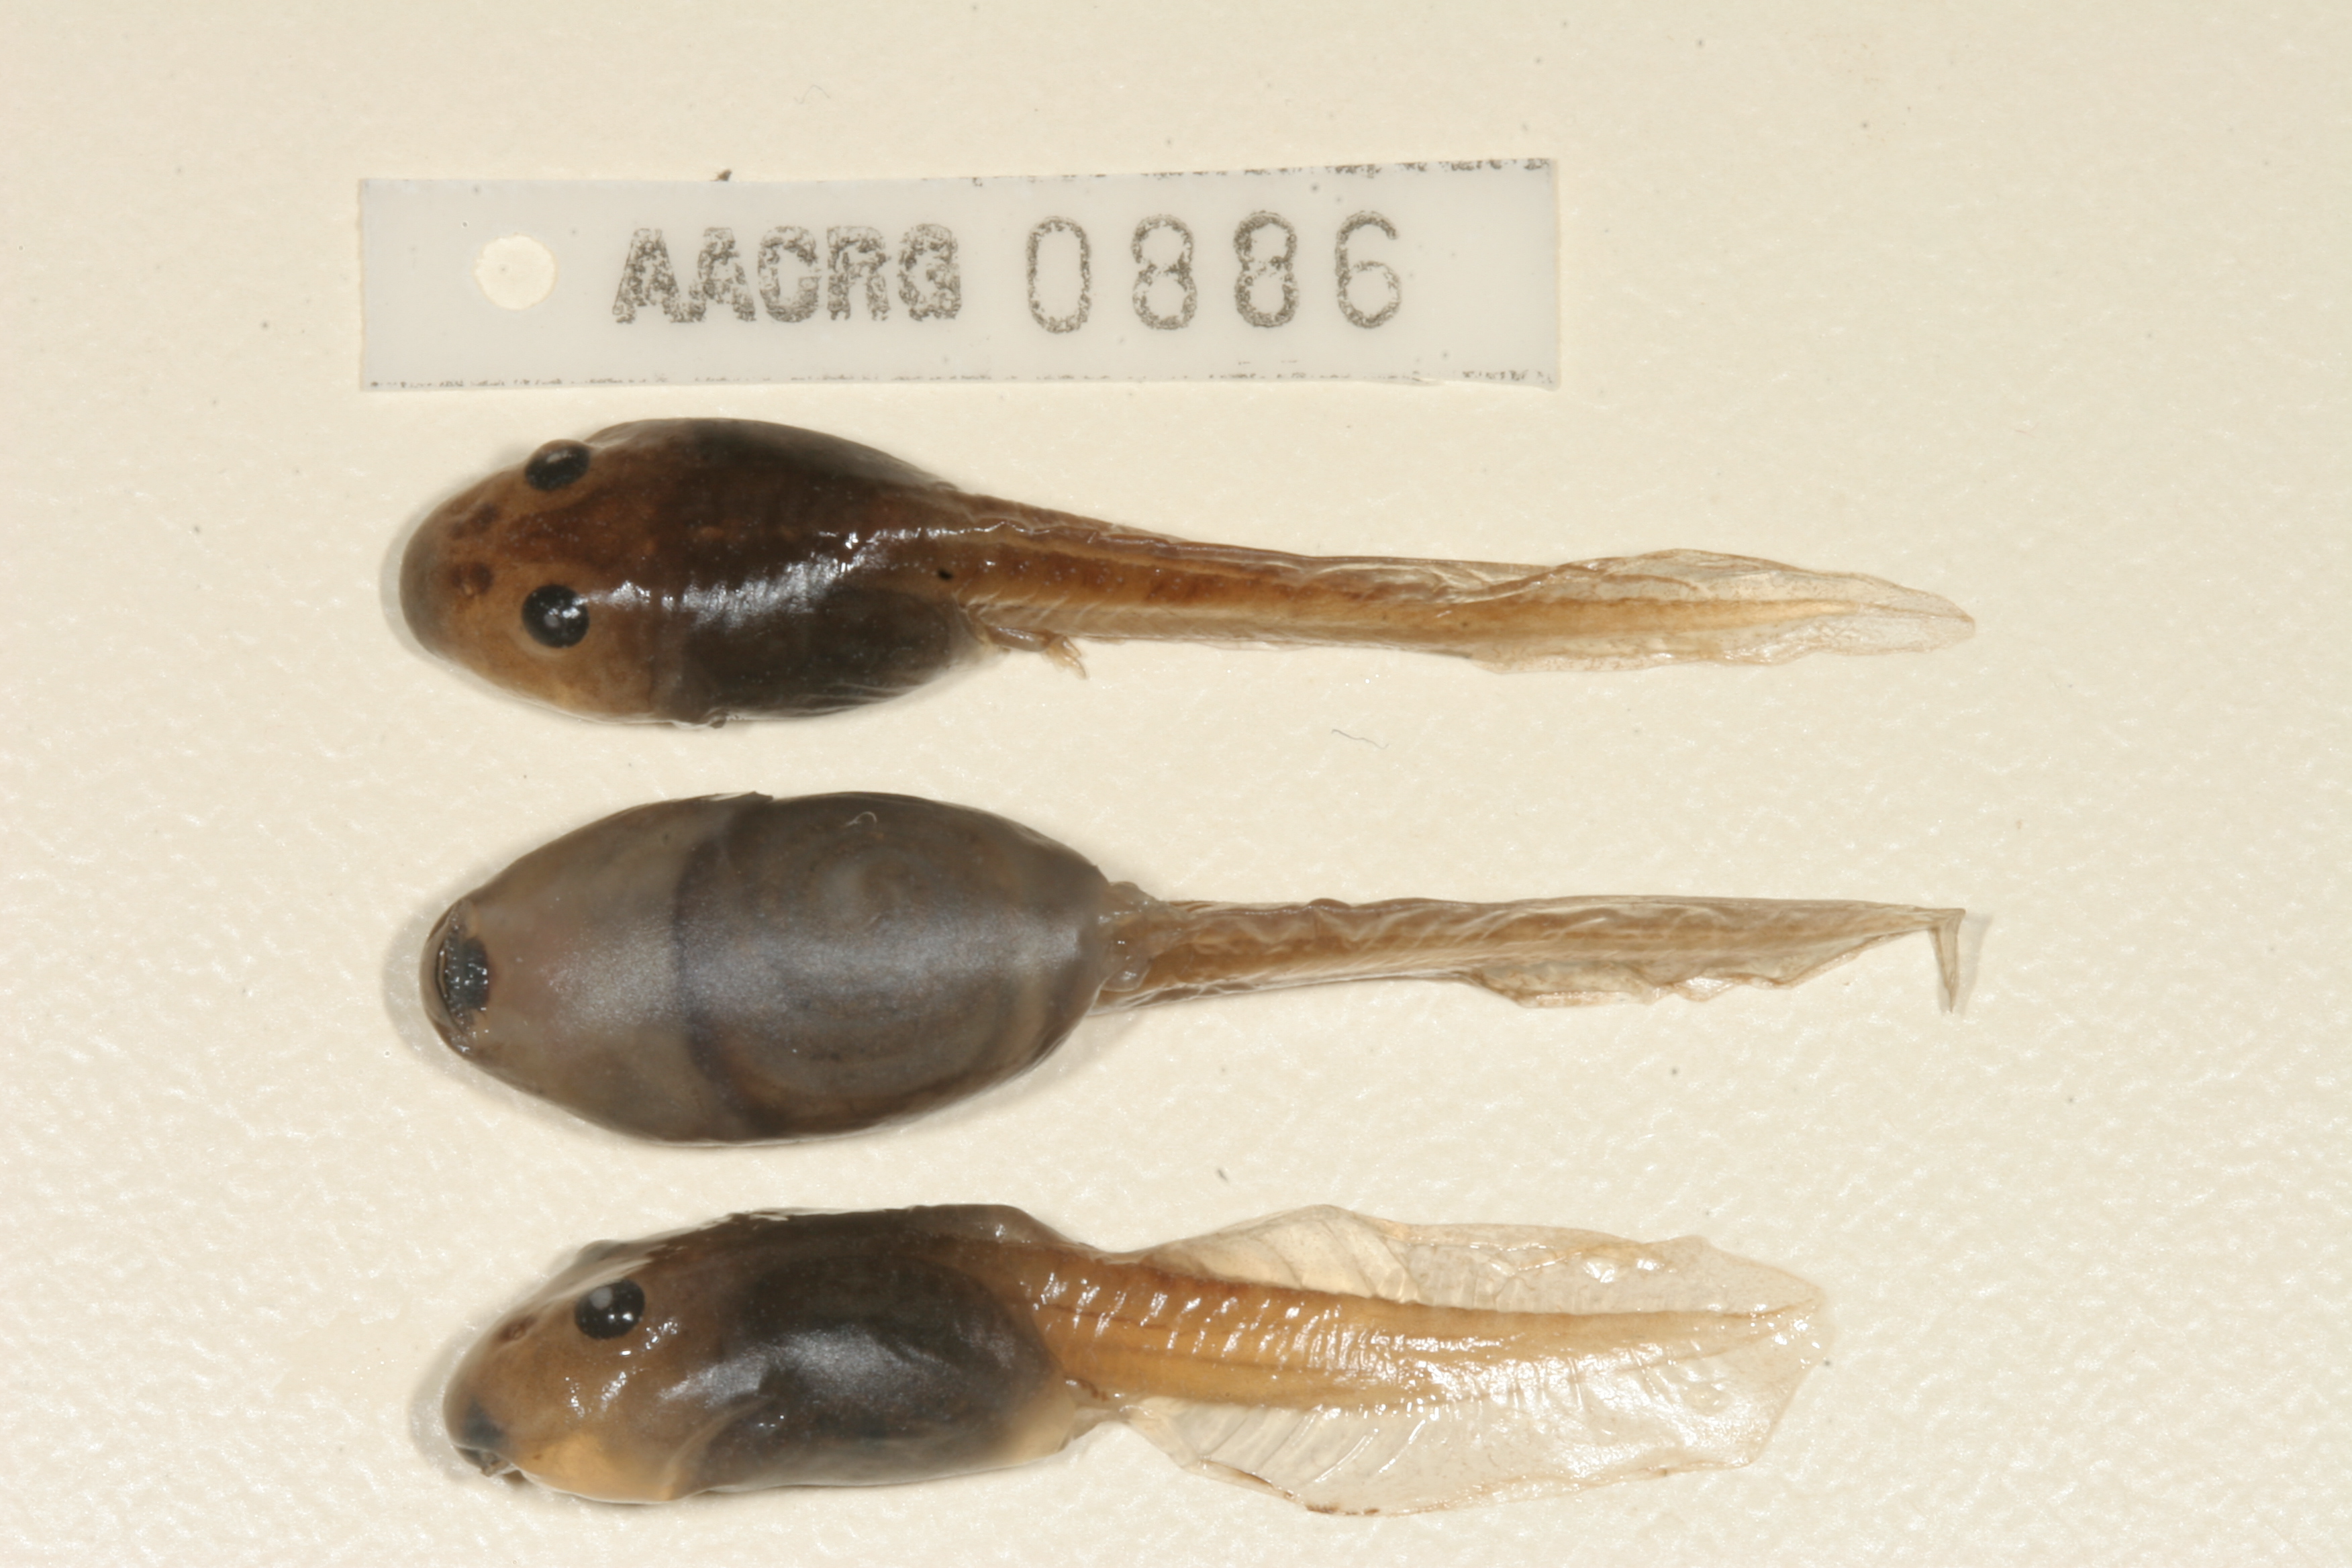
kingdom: Animalia
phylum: Chordata
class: Amphibia
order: Anura
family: Pyxicephalidae
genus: Strongylopus
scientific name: Strongylopus grayii
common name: Gray's stream frog
